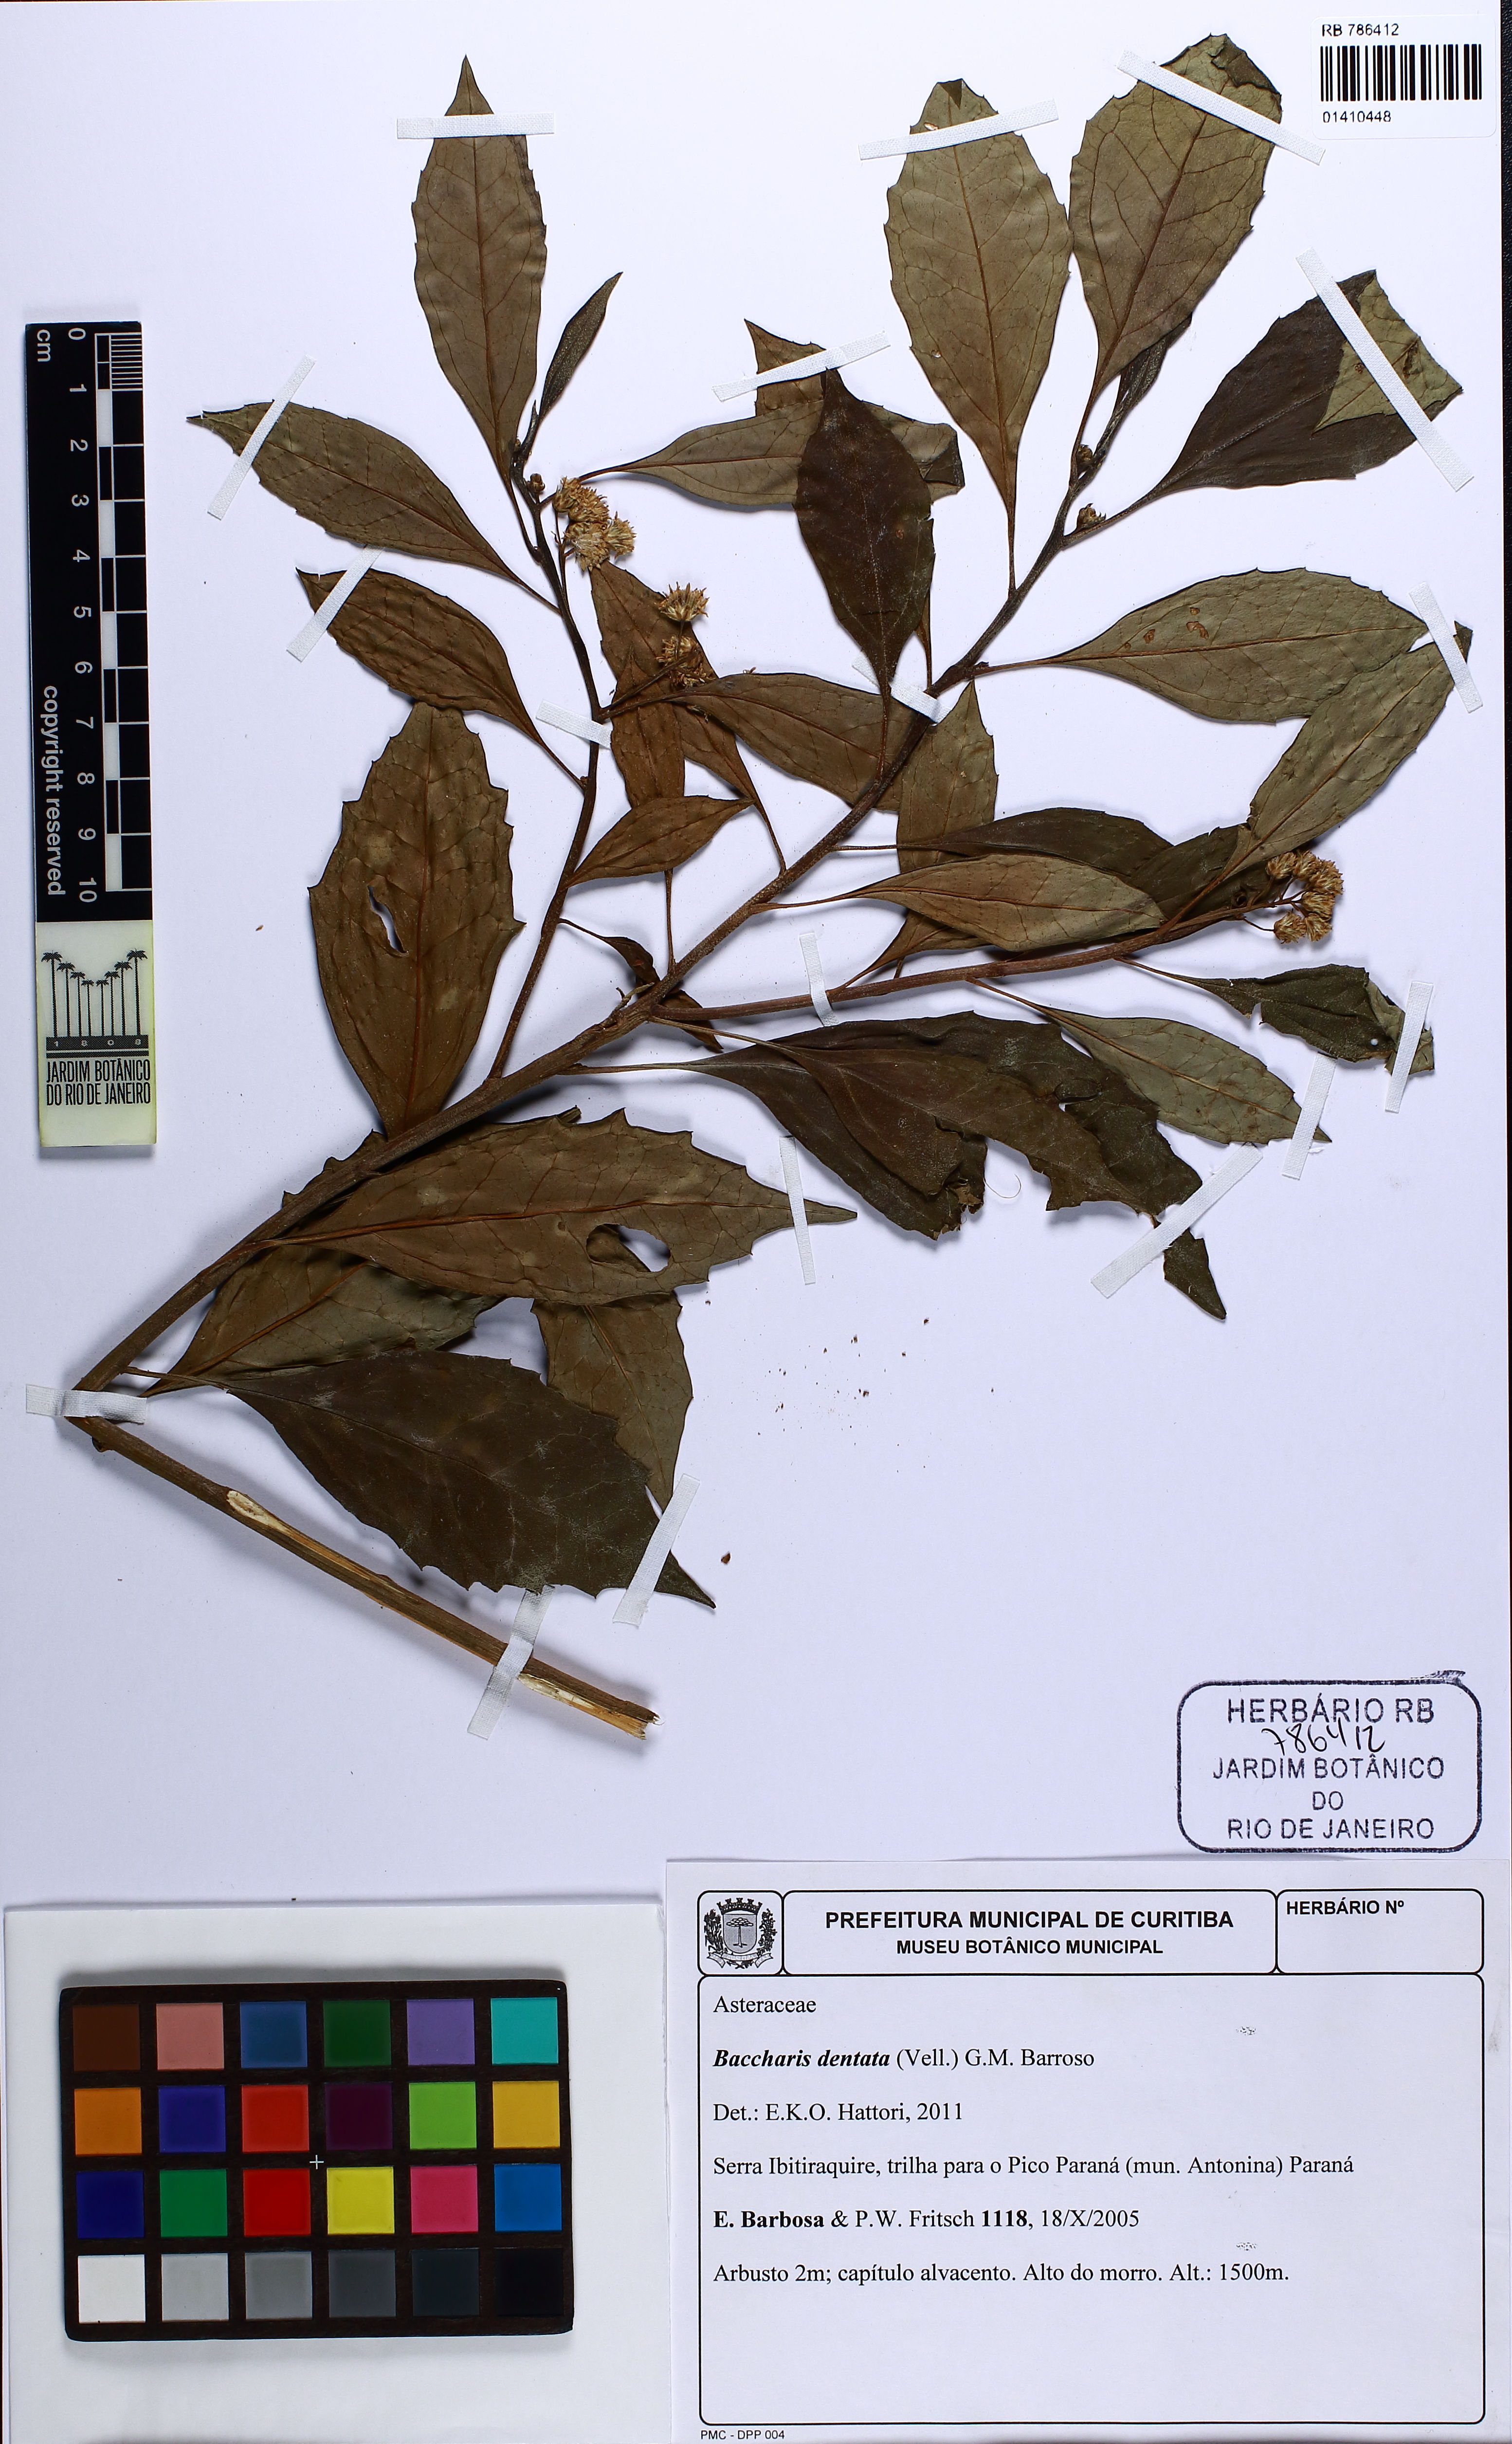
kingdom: Plantae
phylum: Tracheophyta
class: Magnoliopsida
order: Asterales
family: Asteraceae
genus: Baccharis
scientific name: Baccharis dentata
